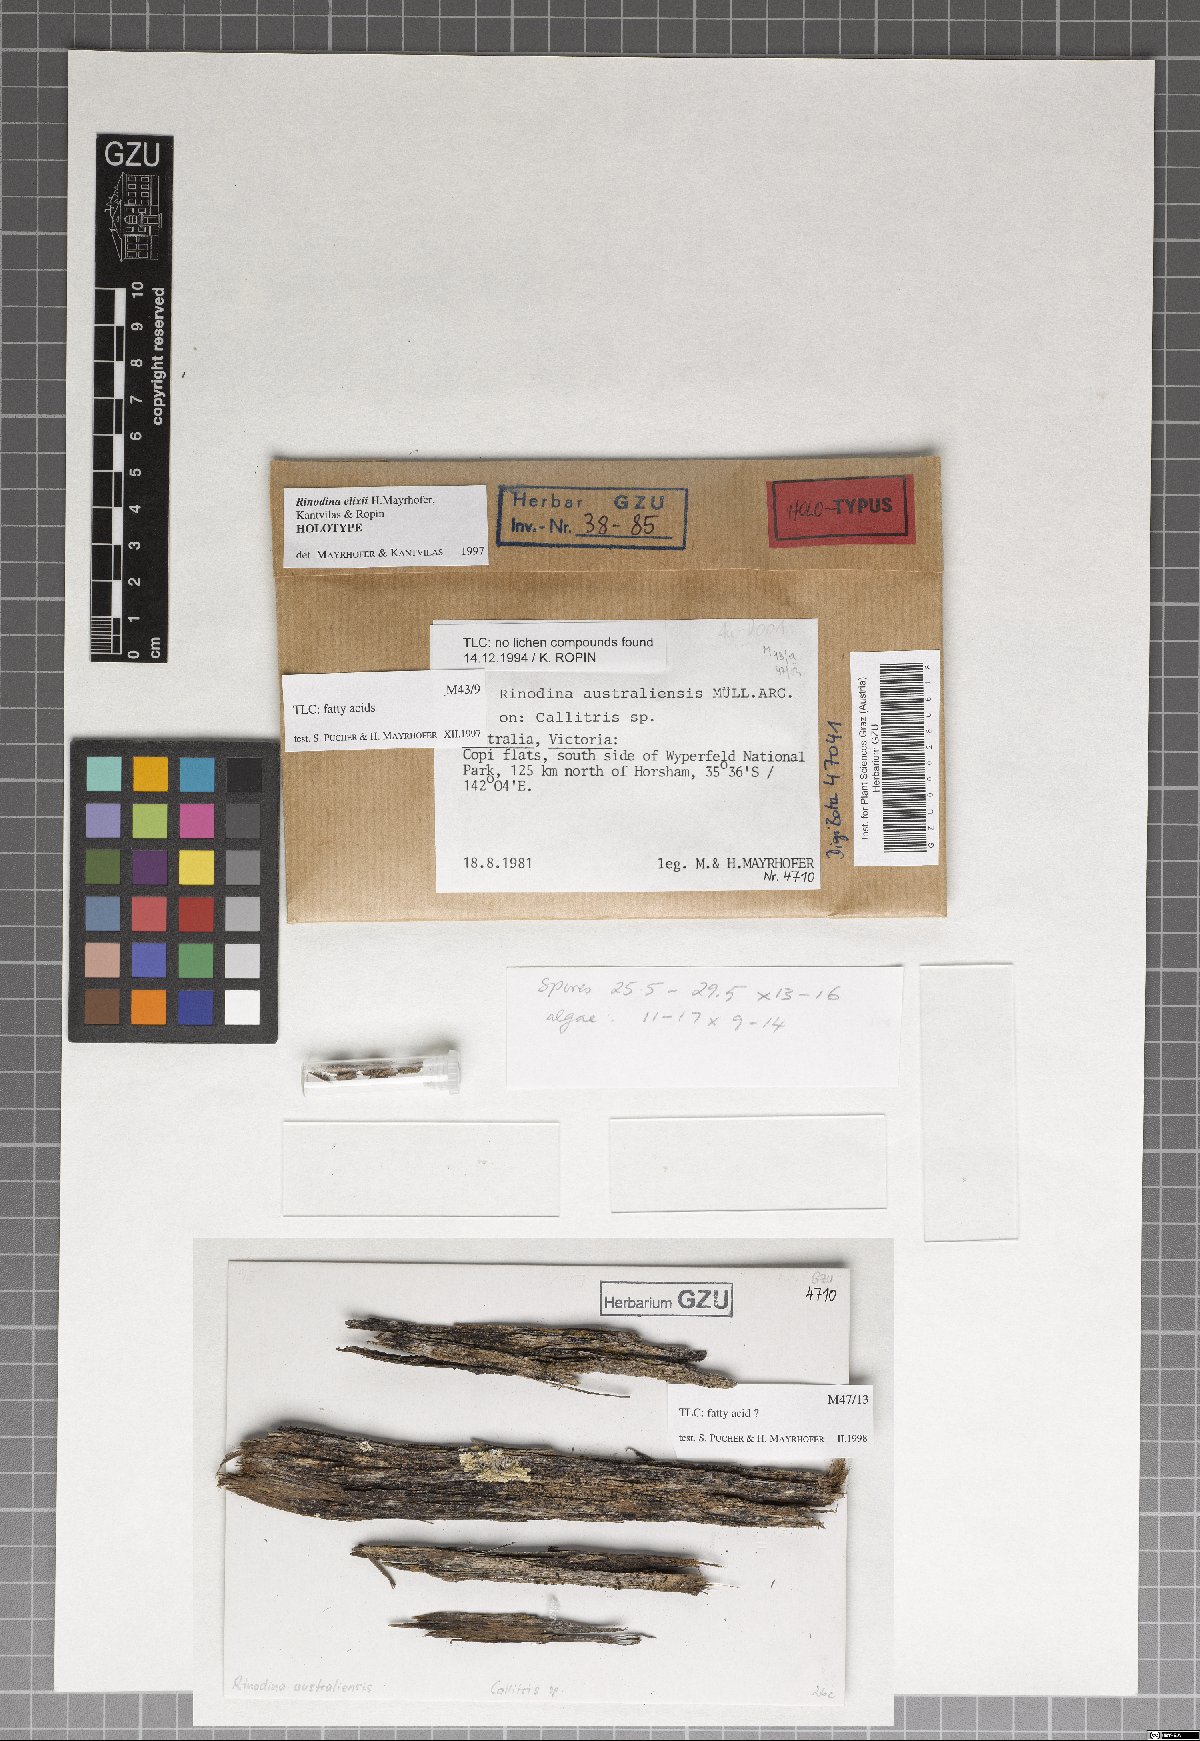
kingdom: Fungi
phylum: Ascomycota
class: Lecanoromycetes
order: Caliciales
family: Physciaceae
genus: Rinodina
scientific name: Rinodina elixii
